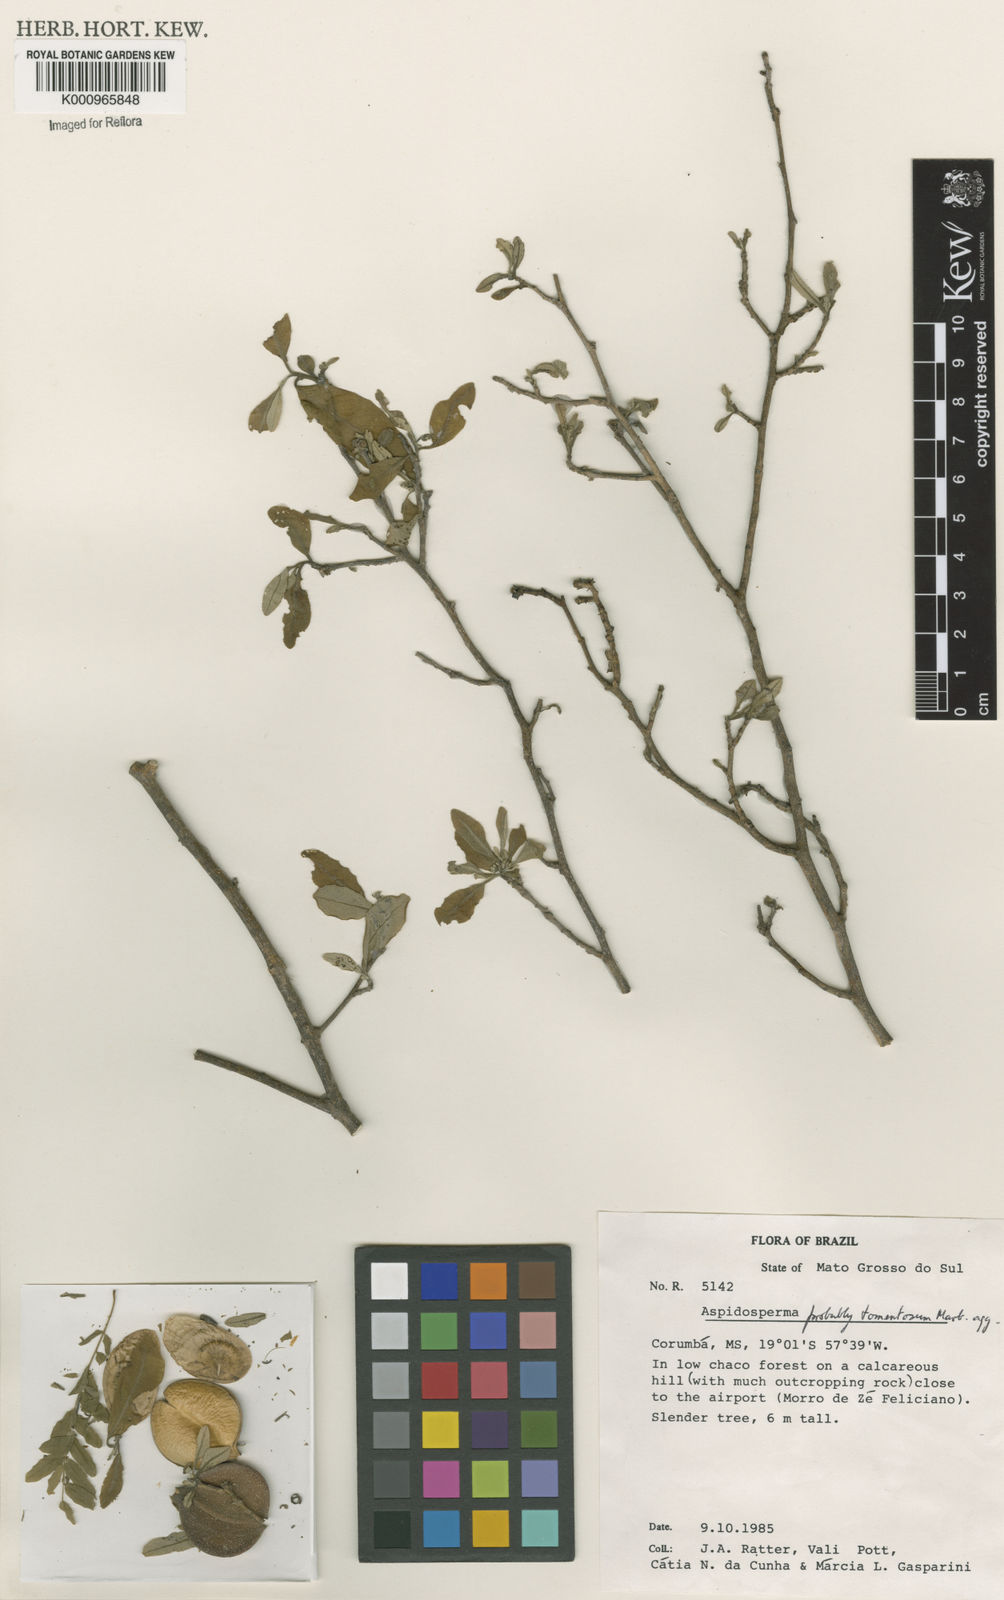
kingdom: Plantae
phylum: Tracheophyta
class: Magnoliopsida
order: Gentianales
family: Apocynaceae
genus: Aspidosperma
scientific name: Aspidosperma tomentosum
